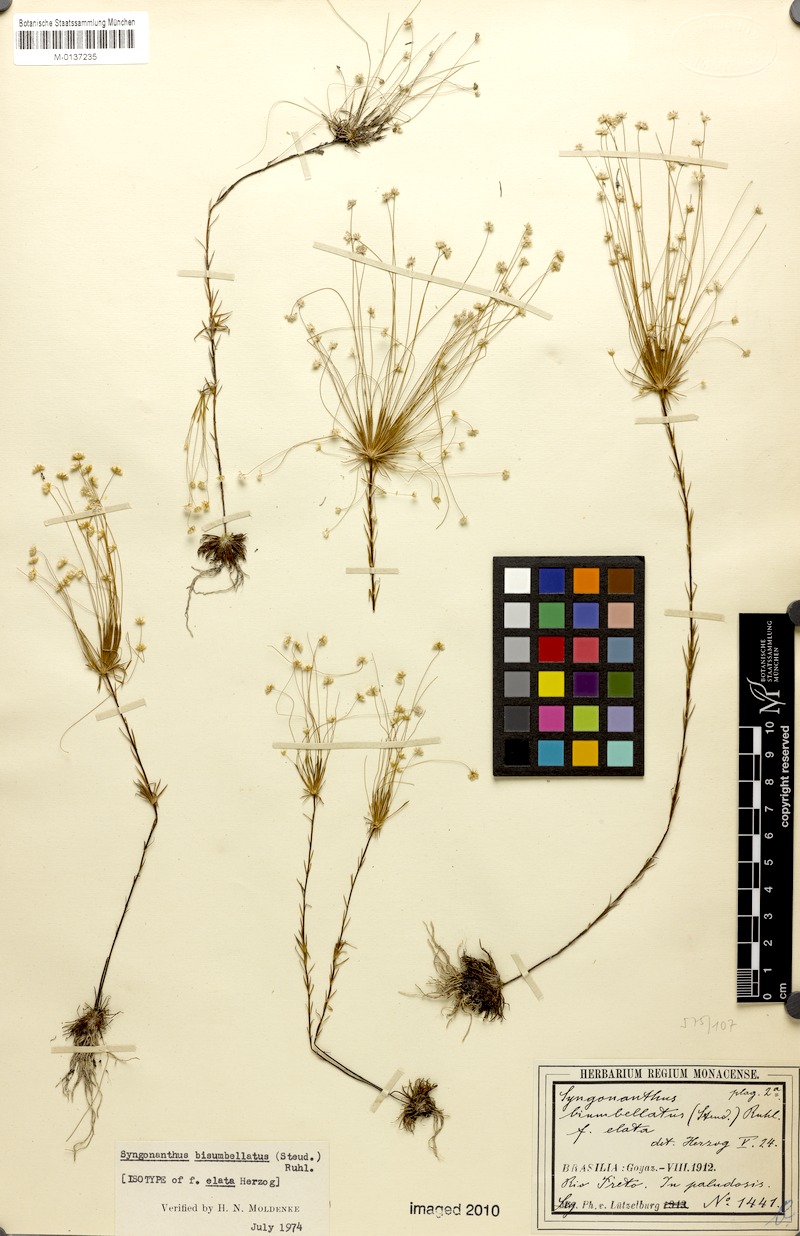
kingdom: Plantae
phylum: Tracheophyta
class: Liliopsida
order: Poales
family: Eriocaulaceae
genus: Syngonanthus
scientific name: Syngonanthus bisumbellatus
